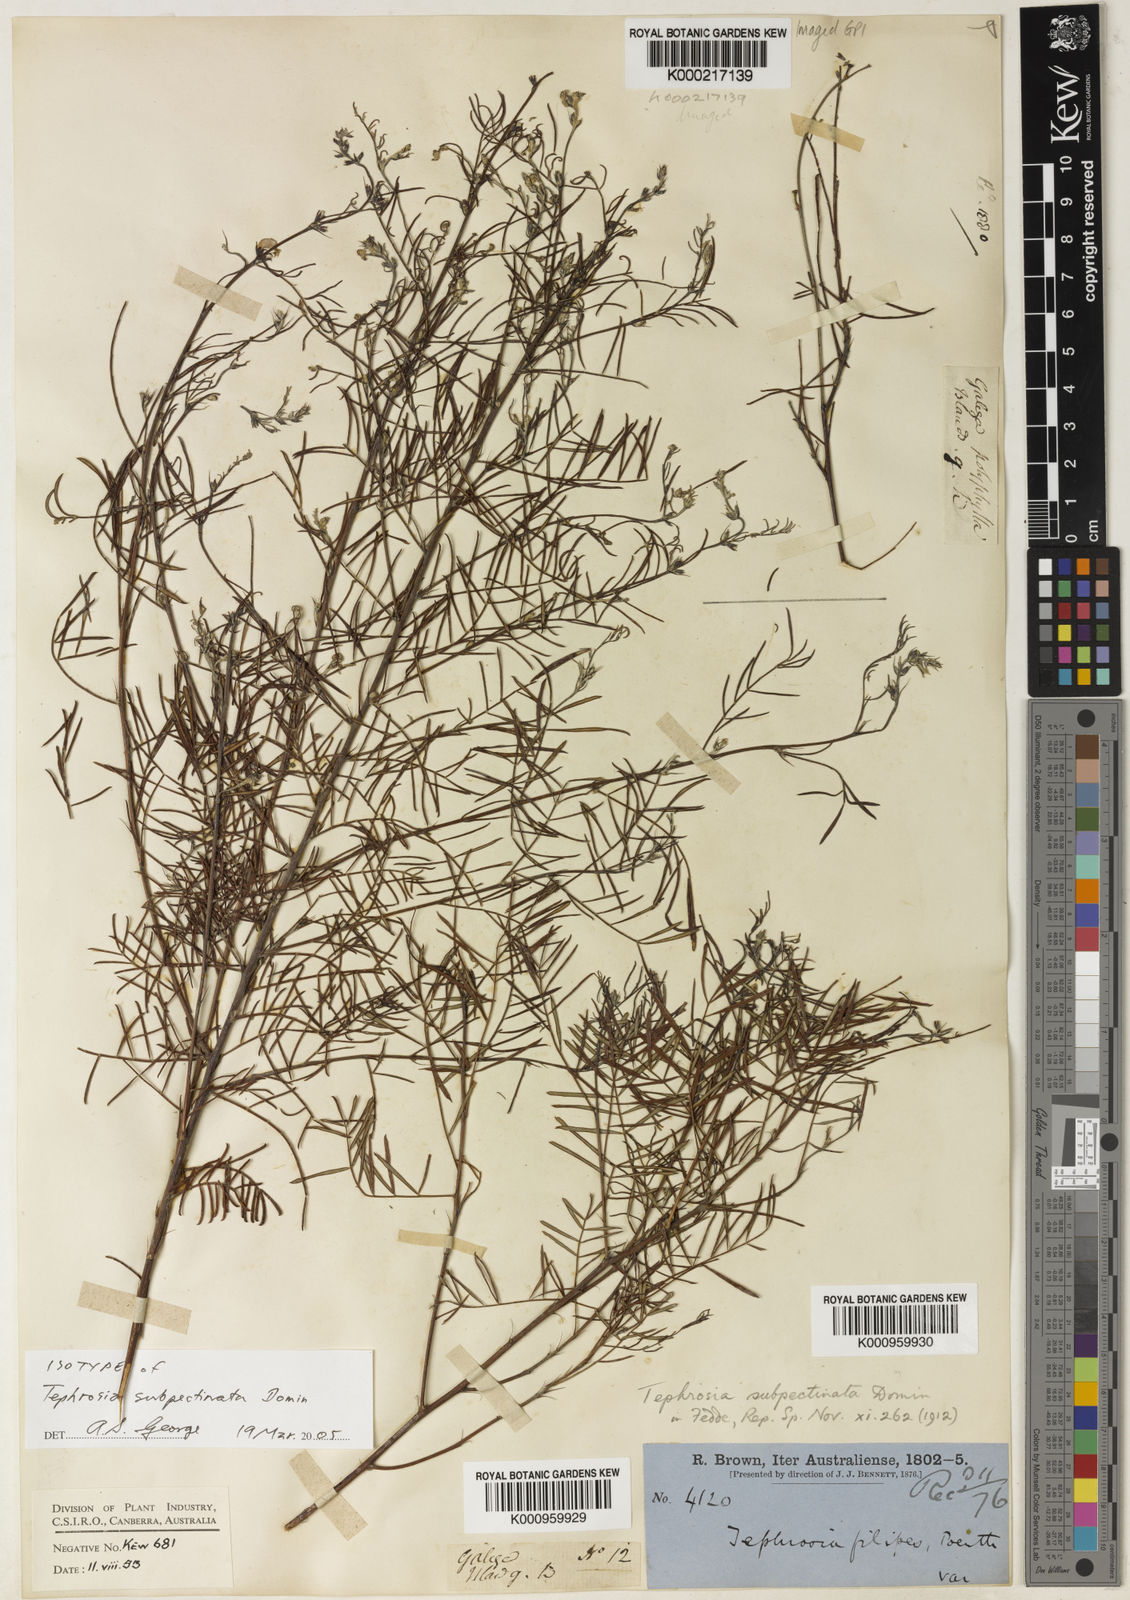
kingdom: Plantae
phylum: Tracheophyta
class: Magnoliopsida
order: Fabales
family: Fabaceae
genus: Tephrosia
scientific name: Tephrosia subpectinata
